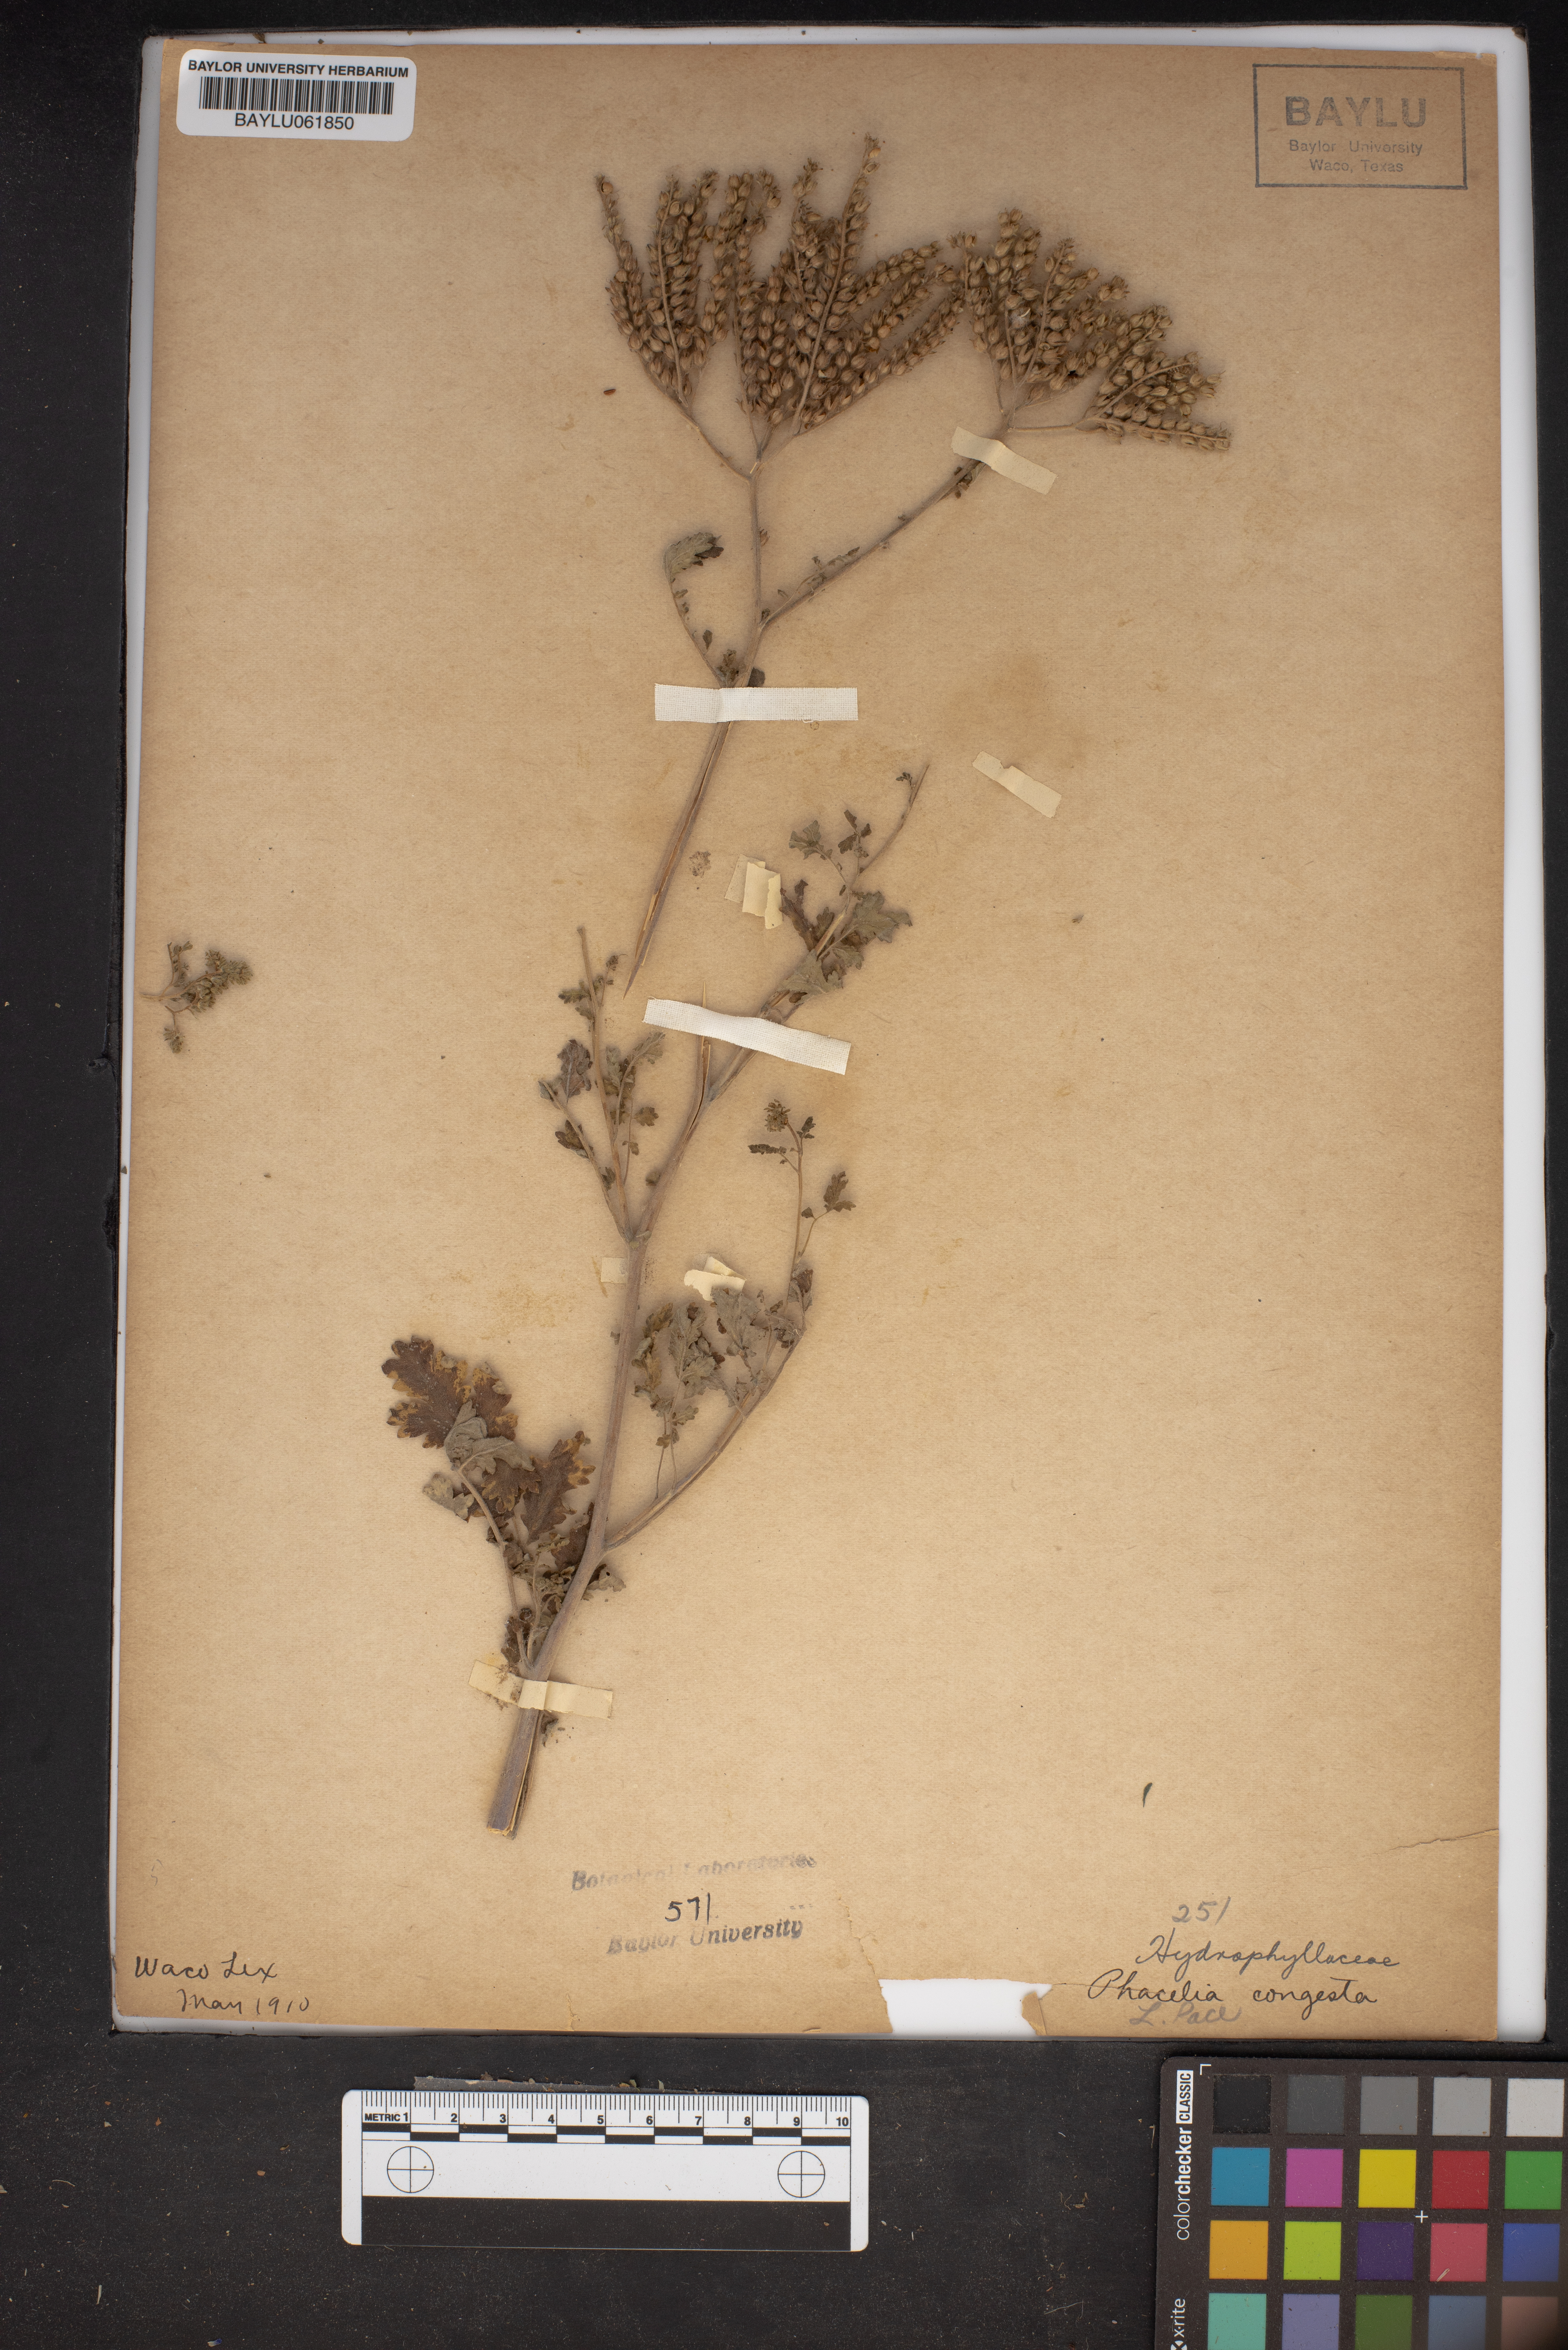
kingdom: Plantae
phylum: Tracheophyta
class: Magnoliopsida
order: Boraginales
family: Hydrophyllaceae
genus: Phacelia
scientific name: Phacelia congesta
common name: Blue curls
